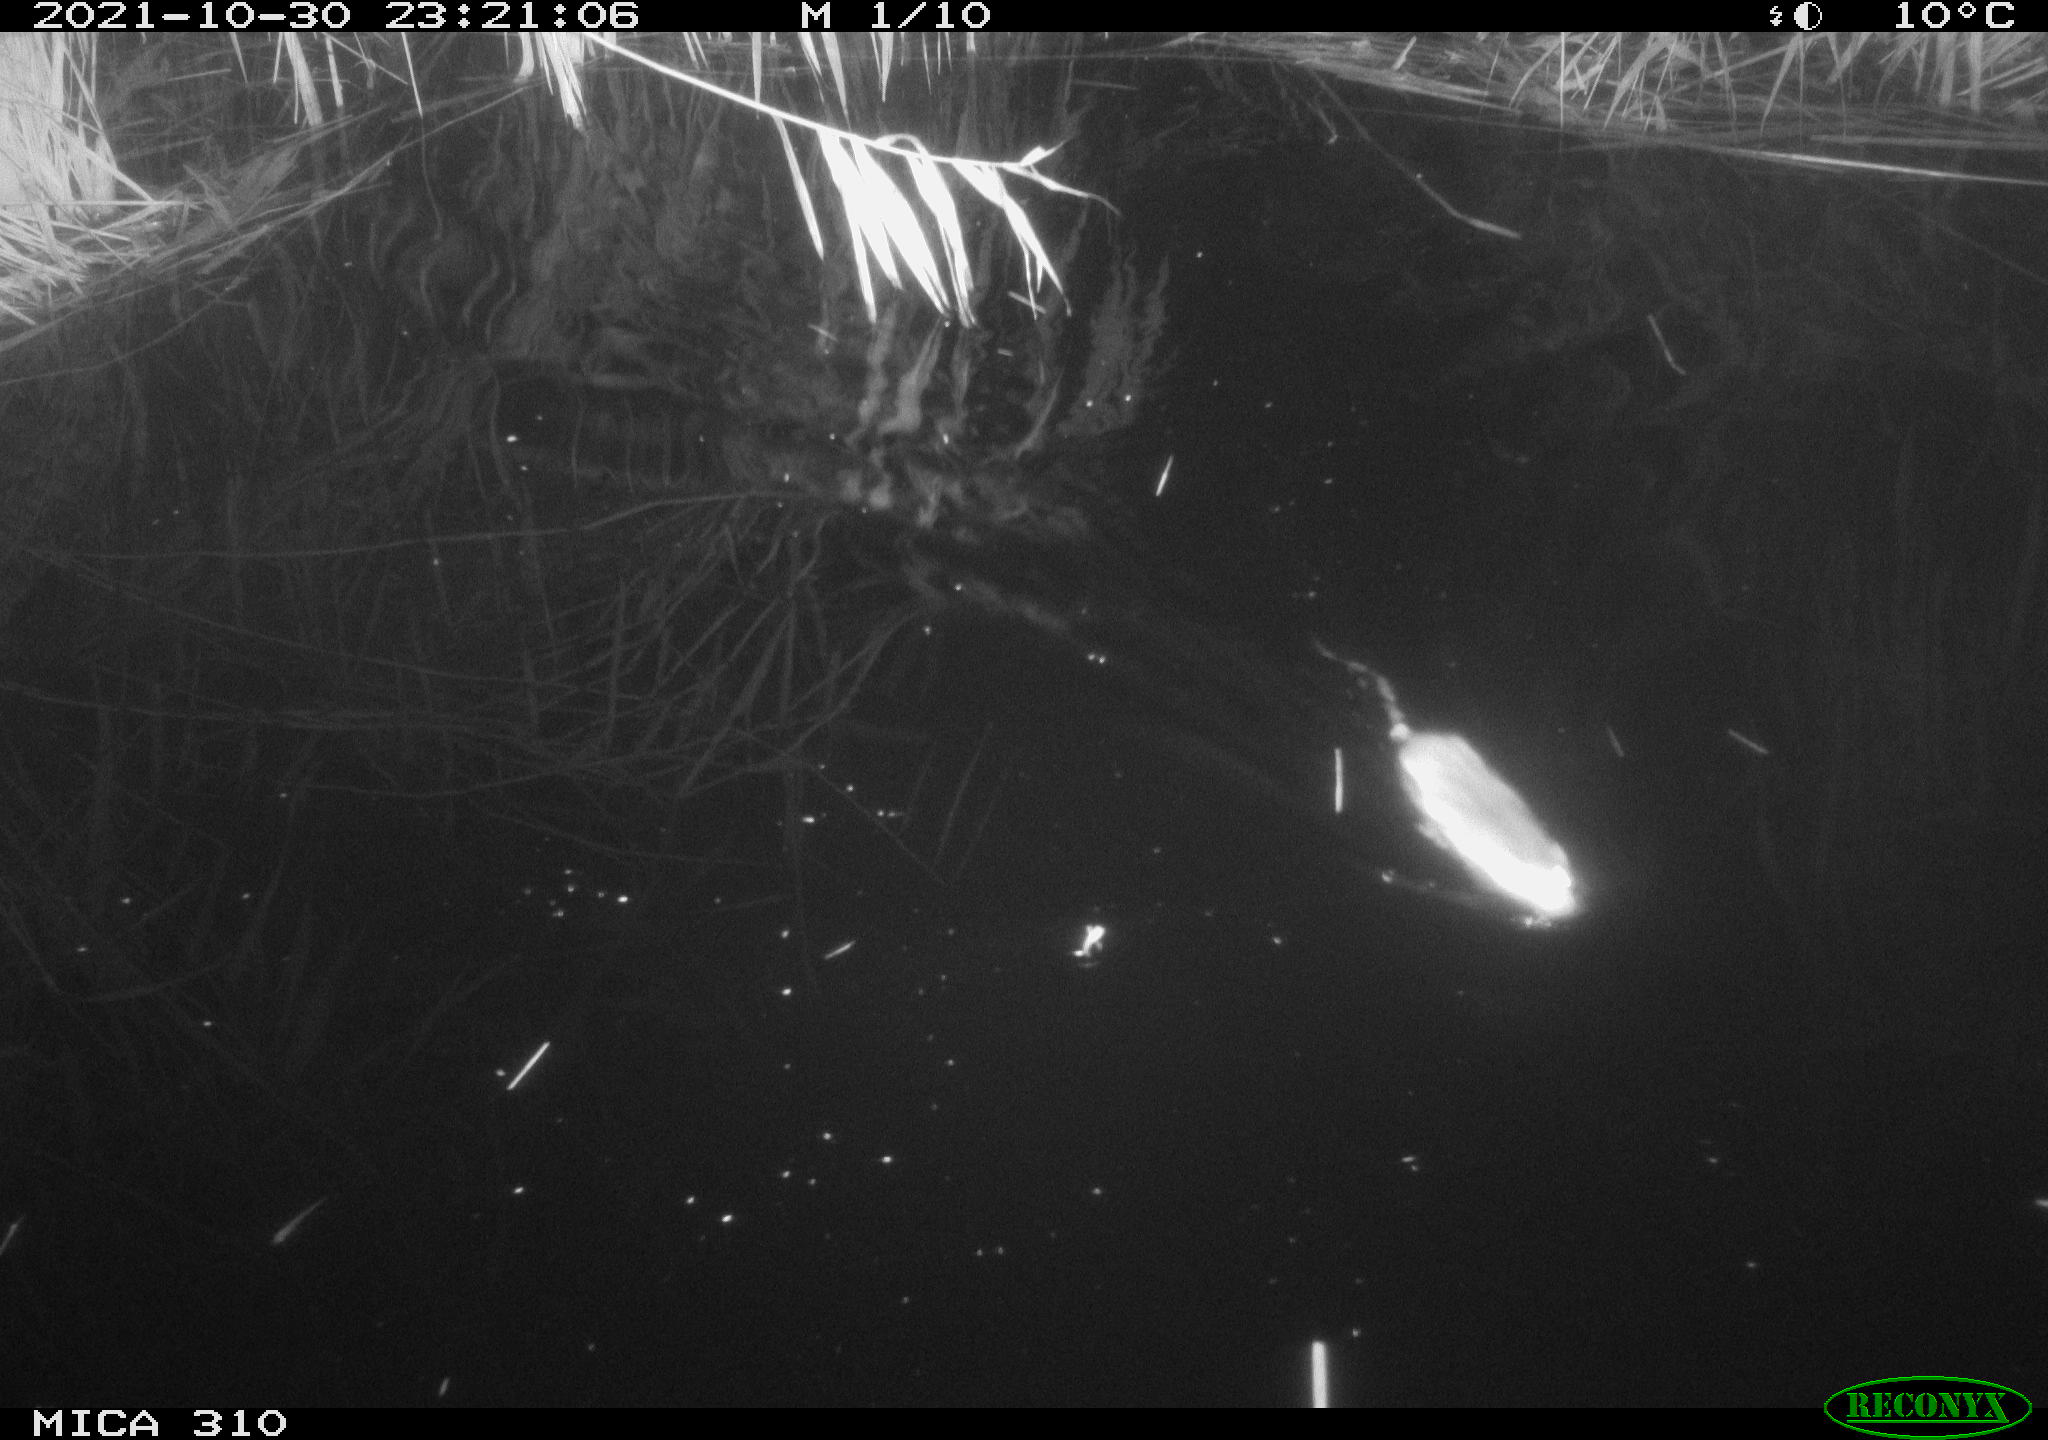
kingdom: Animalia
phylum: Chordata
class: Mammalia
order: Rodentia
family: Muridae
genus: Rattus
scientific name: Rattus norvegicus
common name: Brown rat
